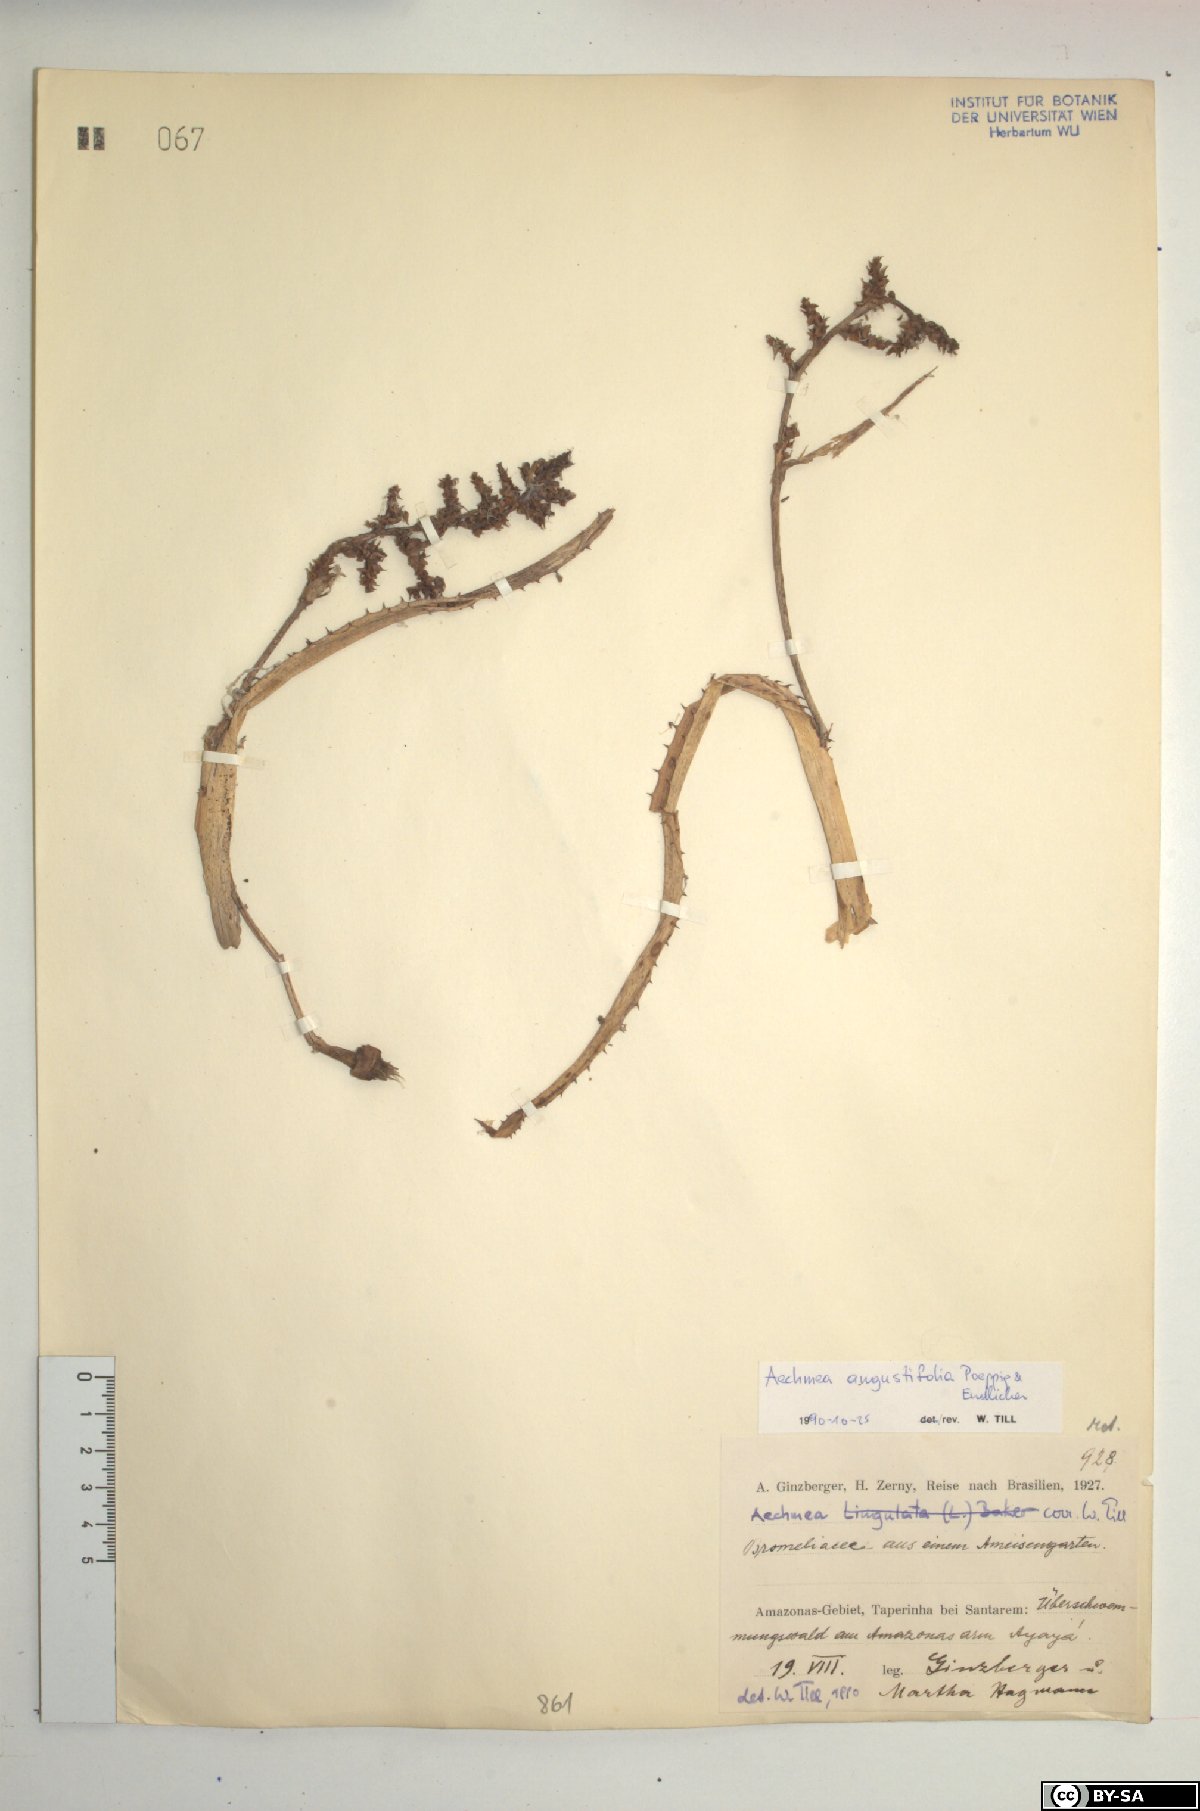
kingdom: Plantae
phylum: Tracheophyta
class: Liliopsida
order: Poales
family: Bromeliaceae
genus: Aechmea
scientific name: Aechmea angustifolia
